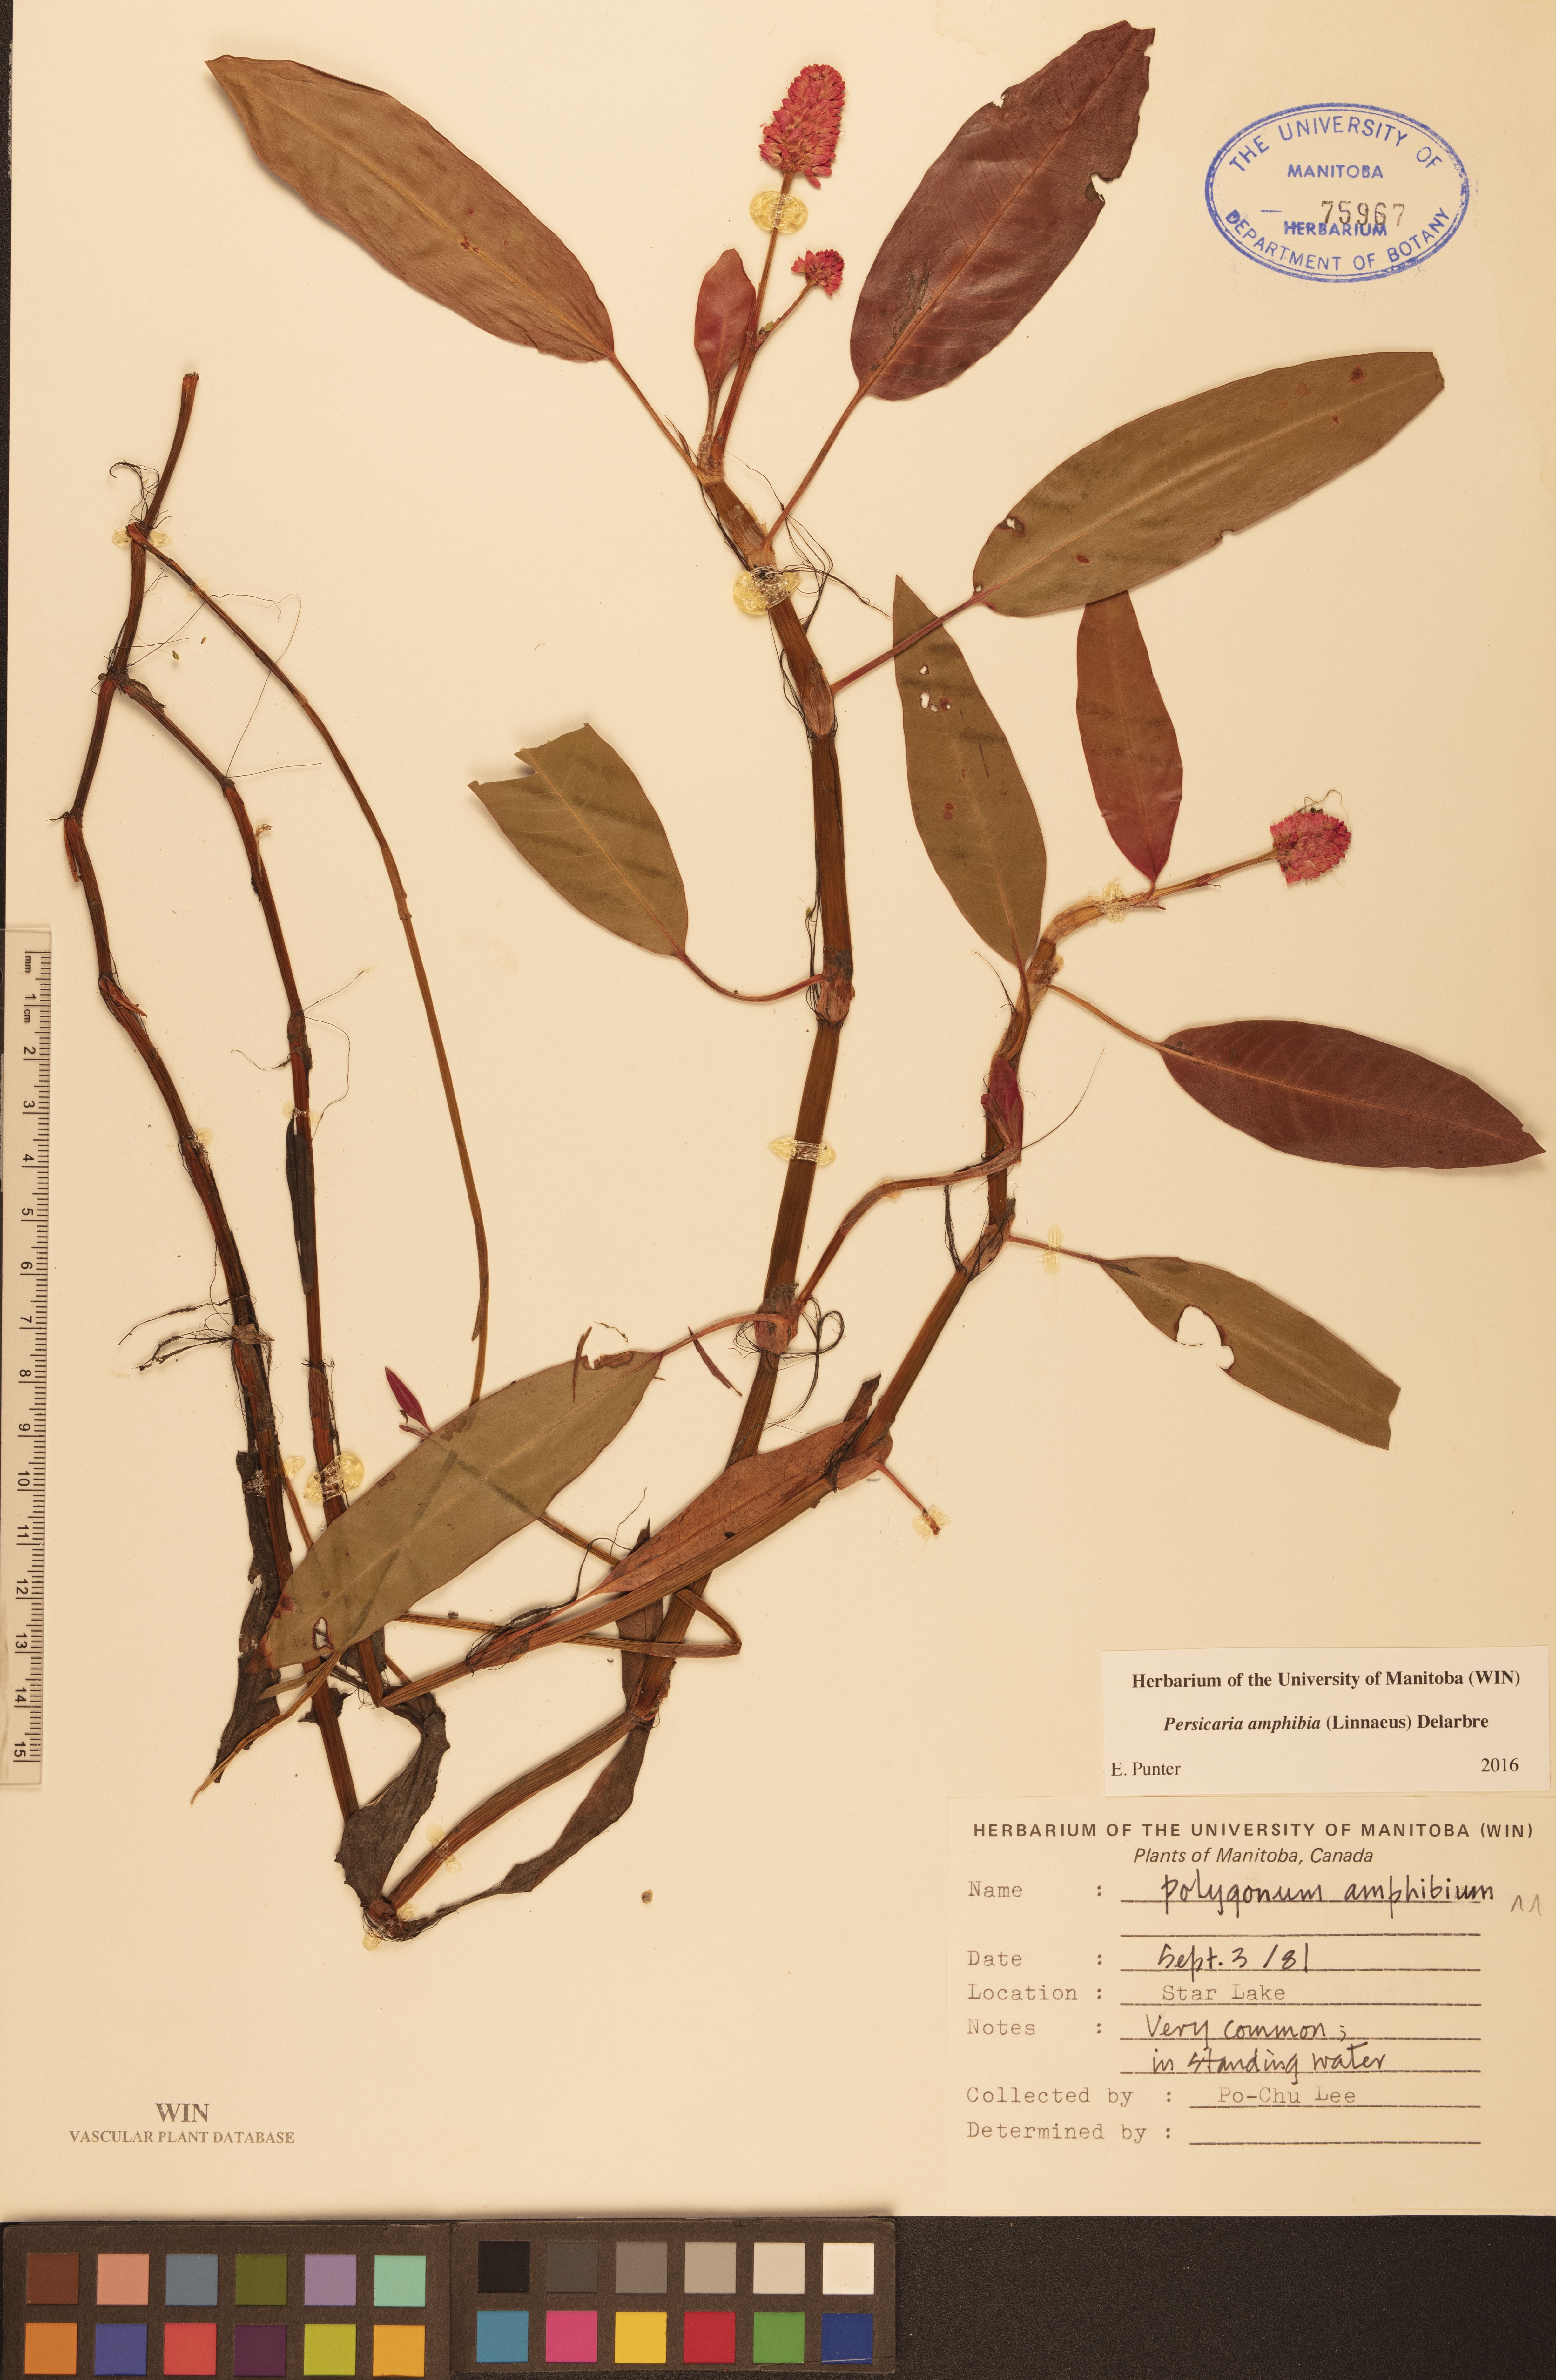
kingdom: Plantae
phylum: Tracheophyta
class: Magnoliopsida
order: Caryophyllales
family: Polygonaceae
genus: Persicaria
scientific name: Persicaria amphibia
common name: Amphibious bistort
